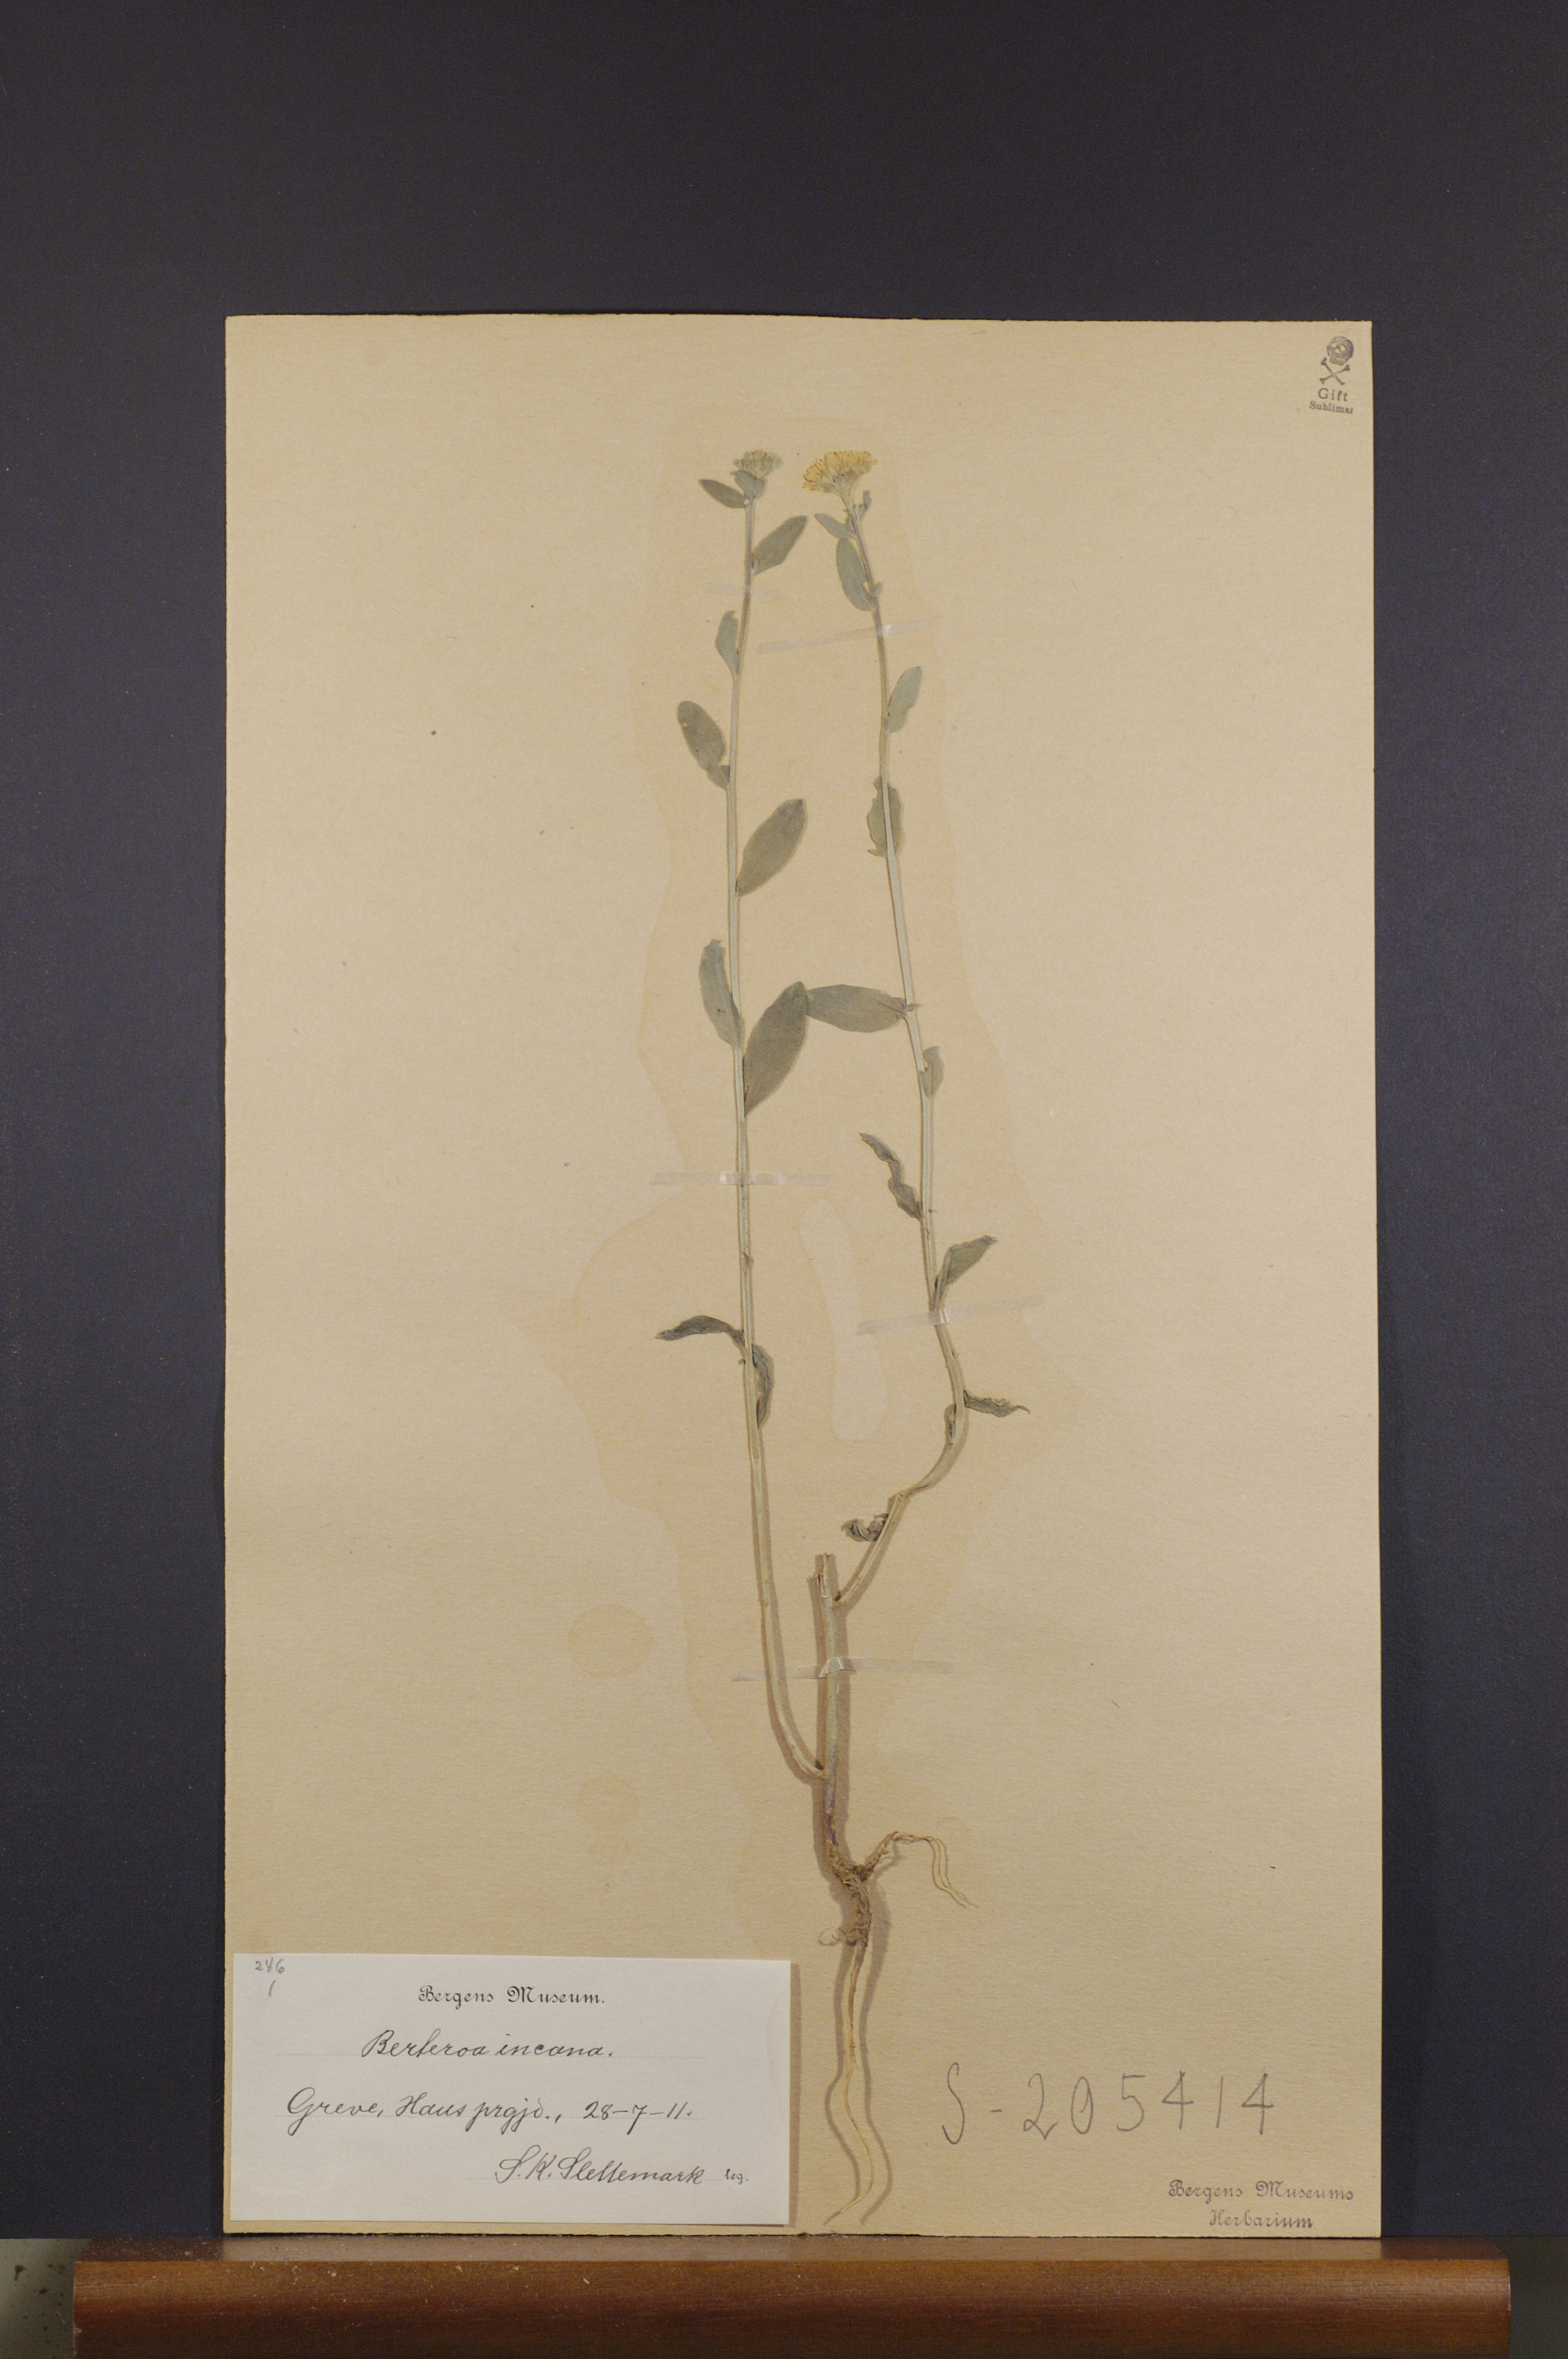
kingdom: Plantae
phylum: Tracheophyta
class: Magnoliopsida
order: Brassicales
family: Brassicaceae
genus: Berteroa
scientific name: Berteroa incana
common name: Hoary alison
